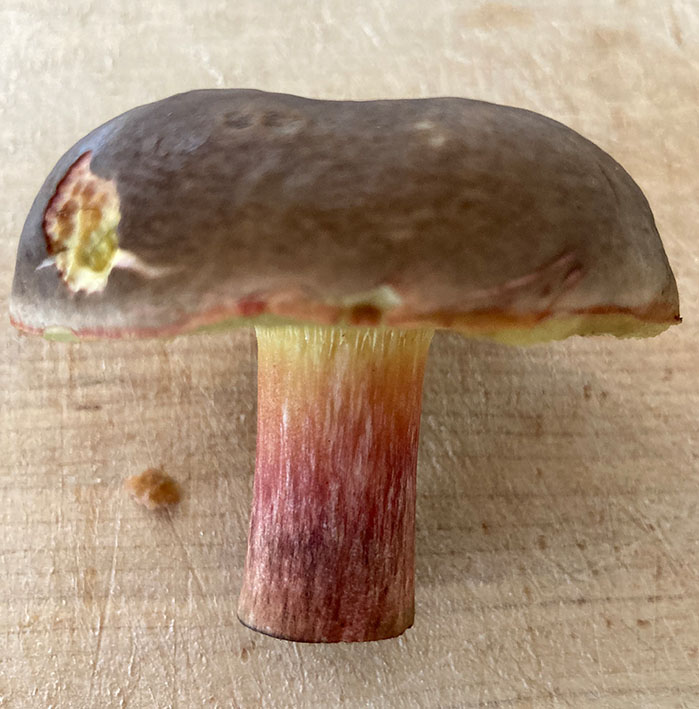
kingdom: Fungi
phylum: Basidiomycota
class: Agaricomycetes
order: Boletales
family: Boletaceae
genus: Xerocomellus
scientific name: Xerocomellus pruinatus
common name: dugget rørhat
